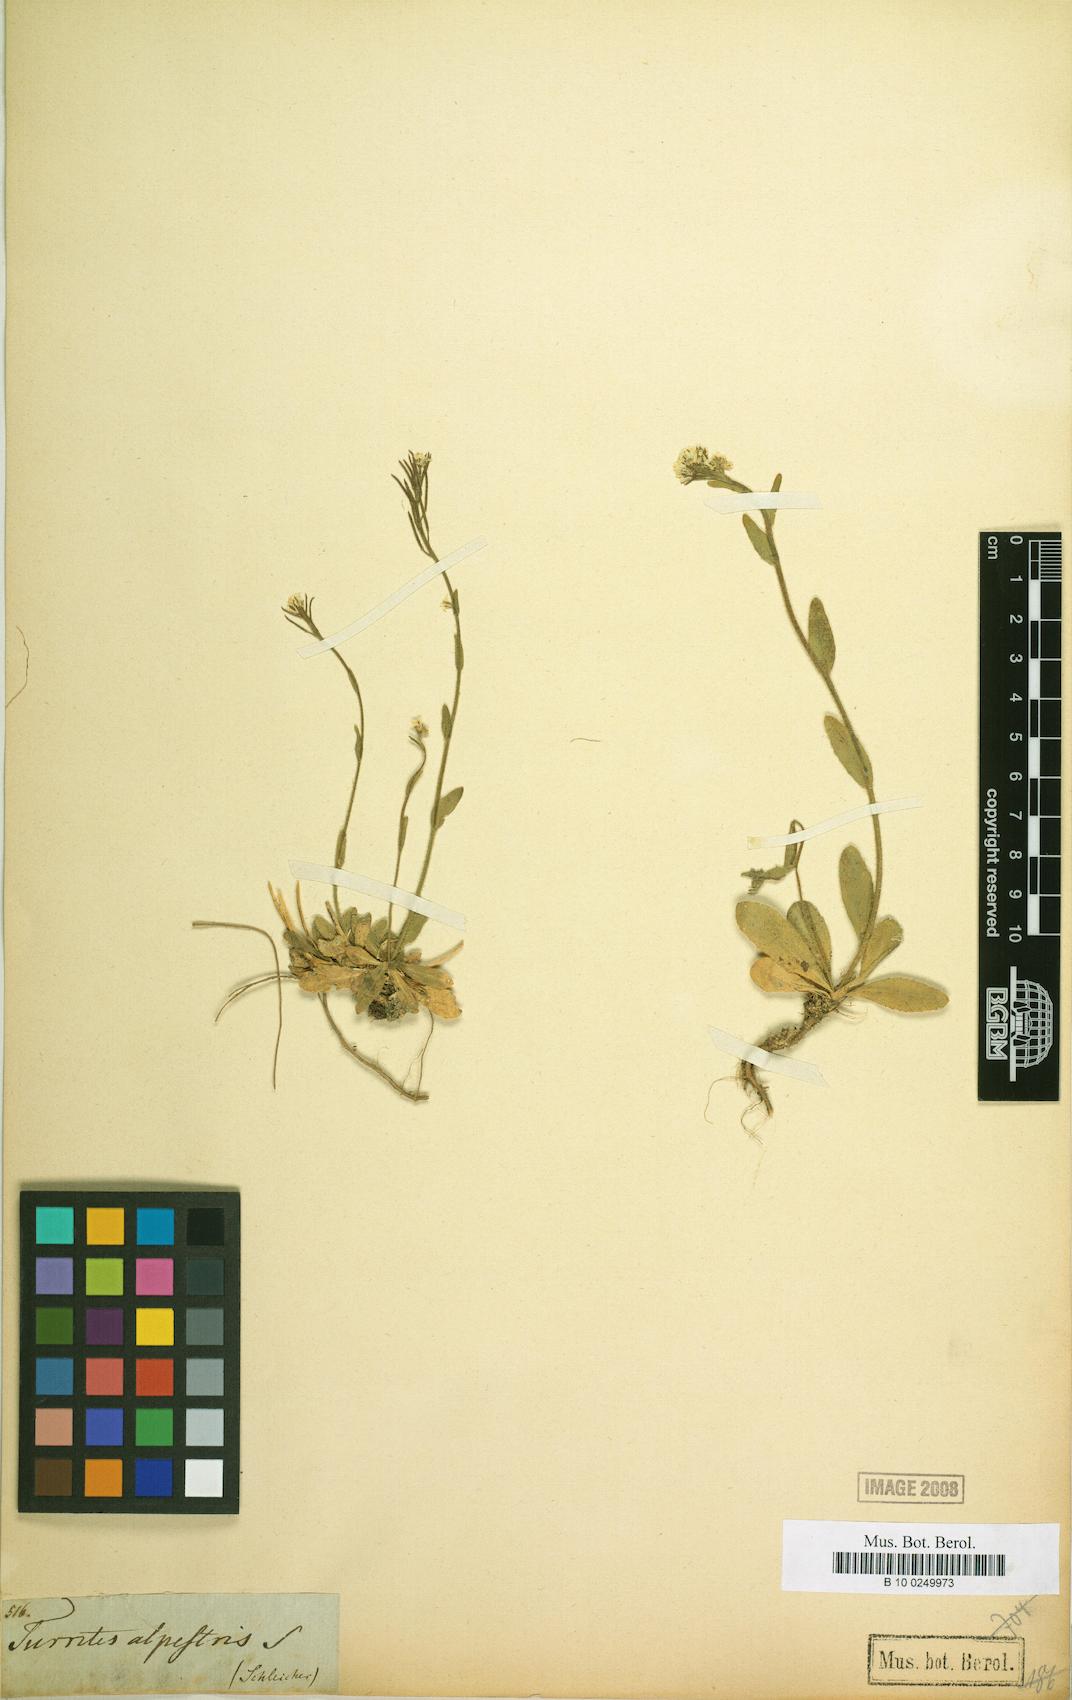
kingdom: Plantae
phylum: Tracheophyta
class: Magnoliopsida
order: Brassicales
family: Brassicaceae
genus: Arabis
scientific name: Arabis ciliata
